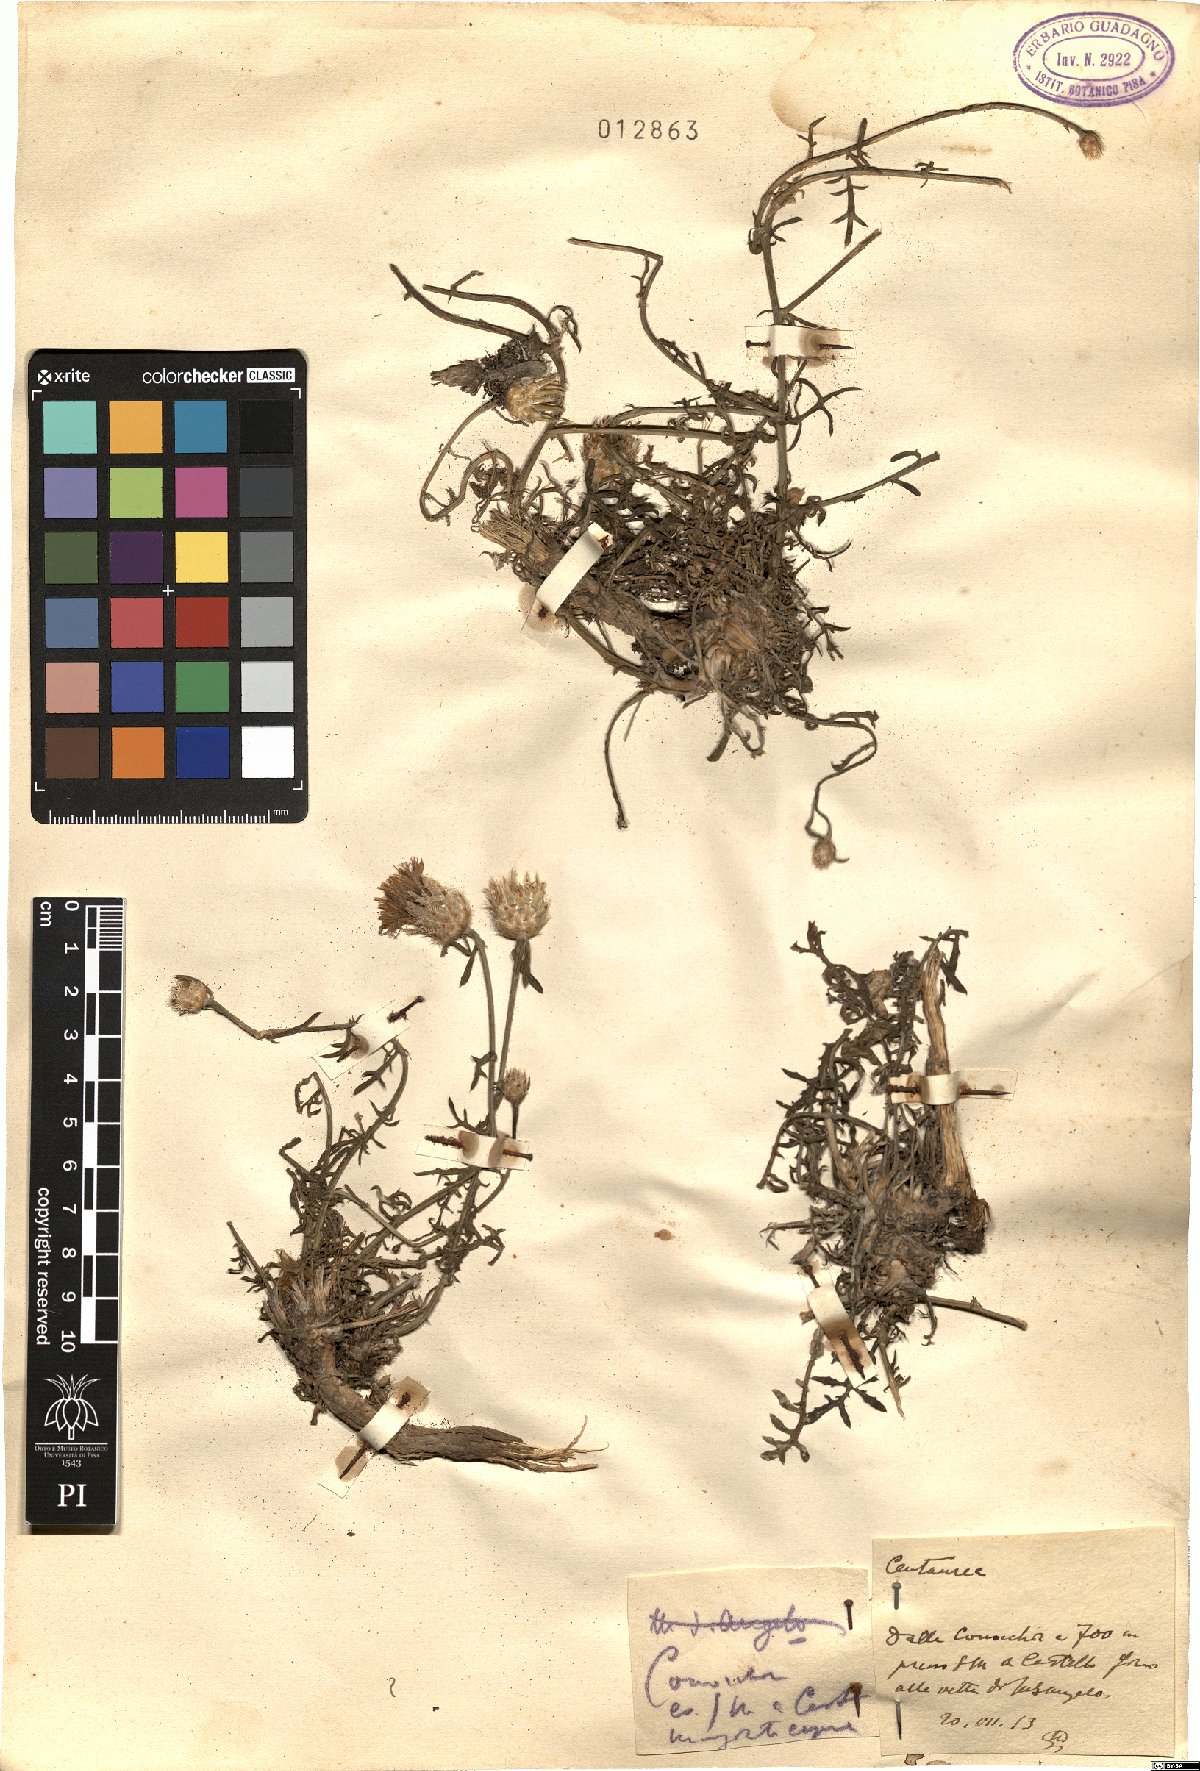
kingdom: Plantae
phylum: Tracheophyta
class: Magnoliopsida
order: Asterales
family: Asteraceae
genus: Centaurea
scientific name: Centaurea
